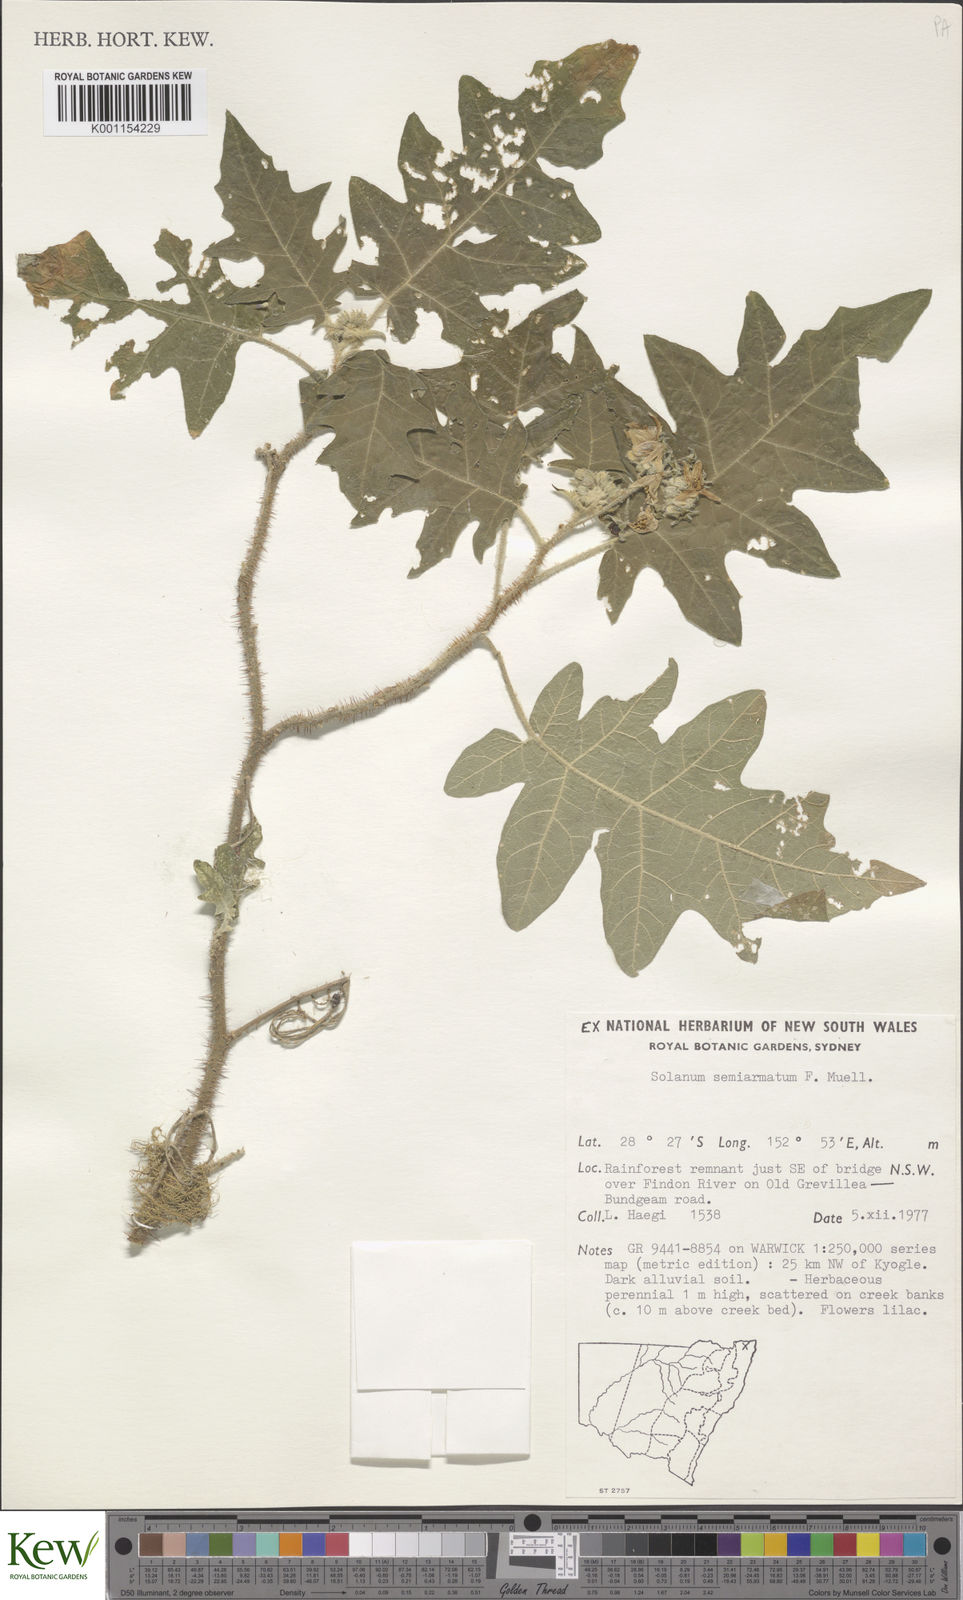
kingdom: Plantae
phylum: Tracheophyta
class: Magnoliopsida
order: Solanales
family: Solanaceae
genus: Solanum
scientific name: Solanum semiarmatum
